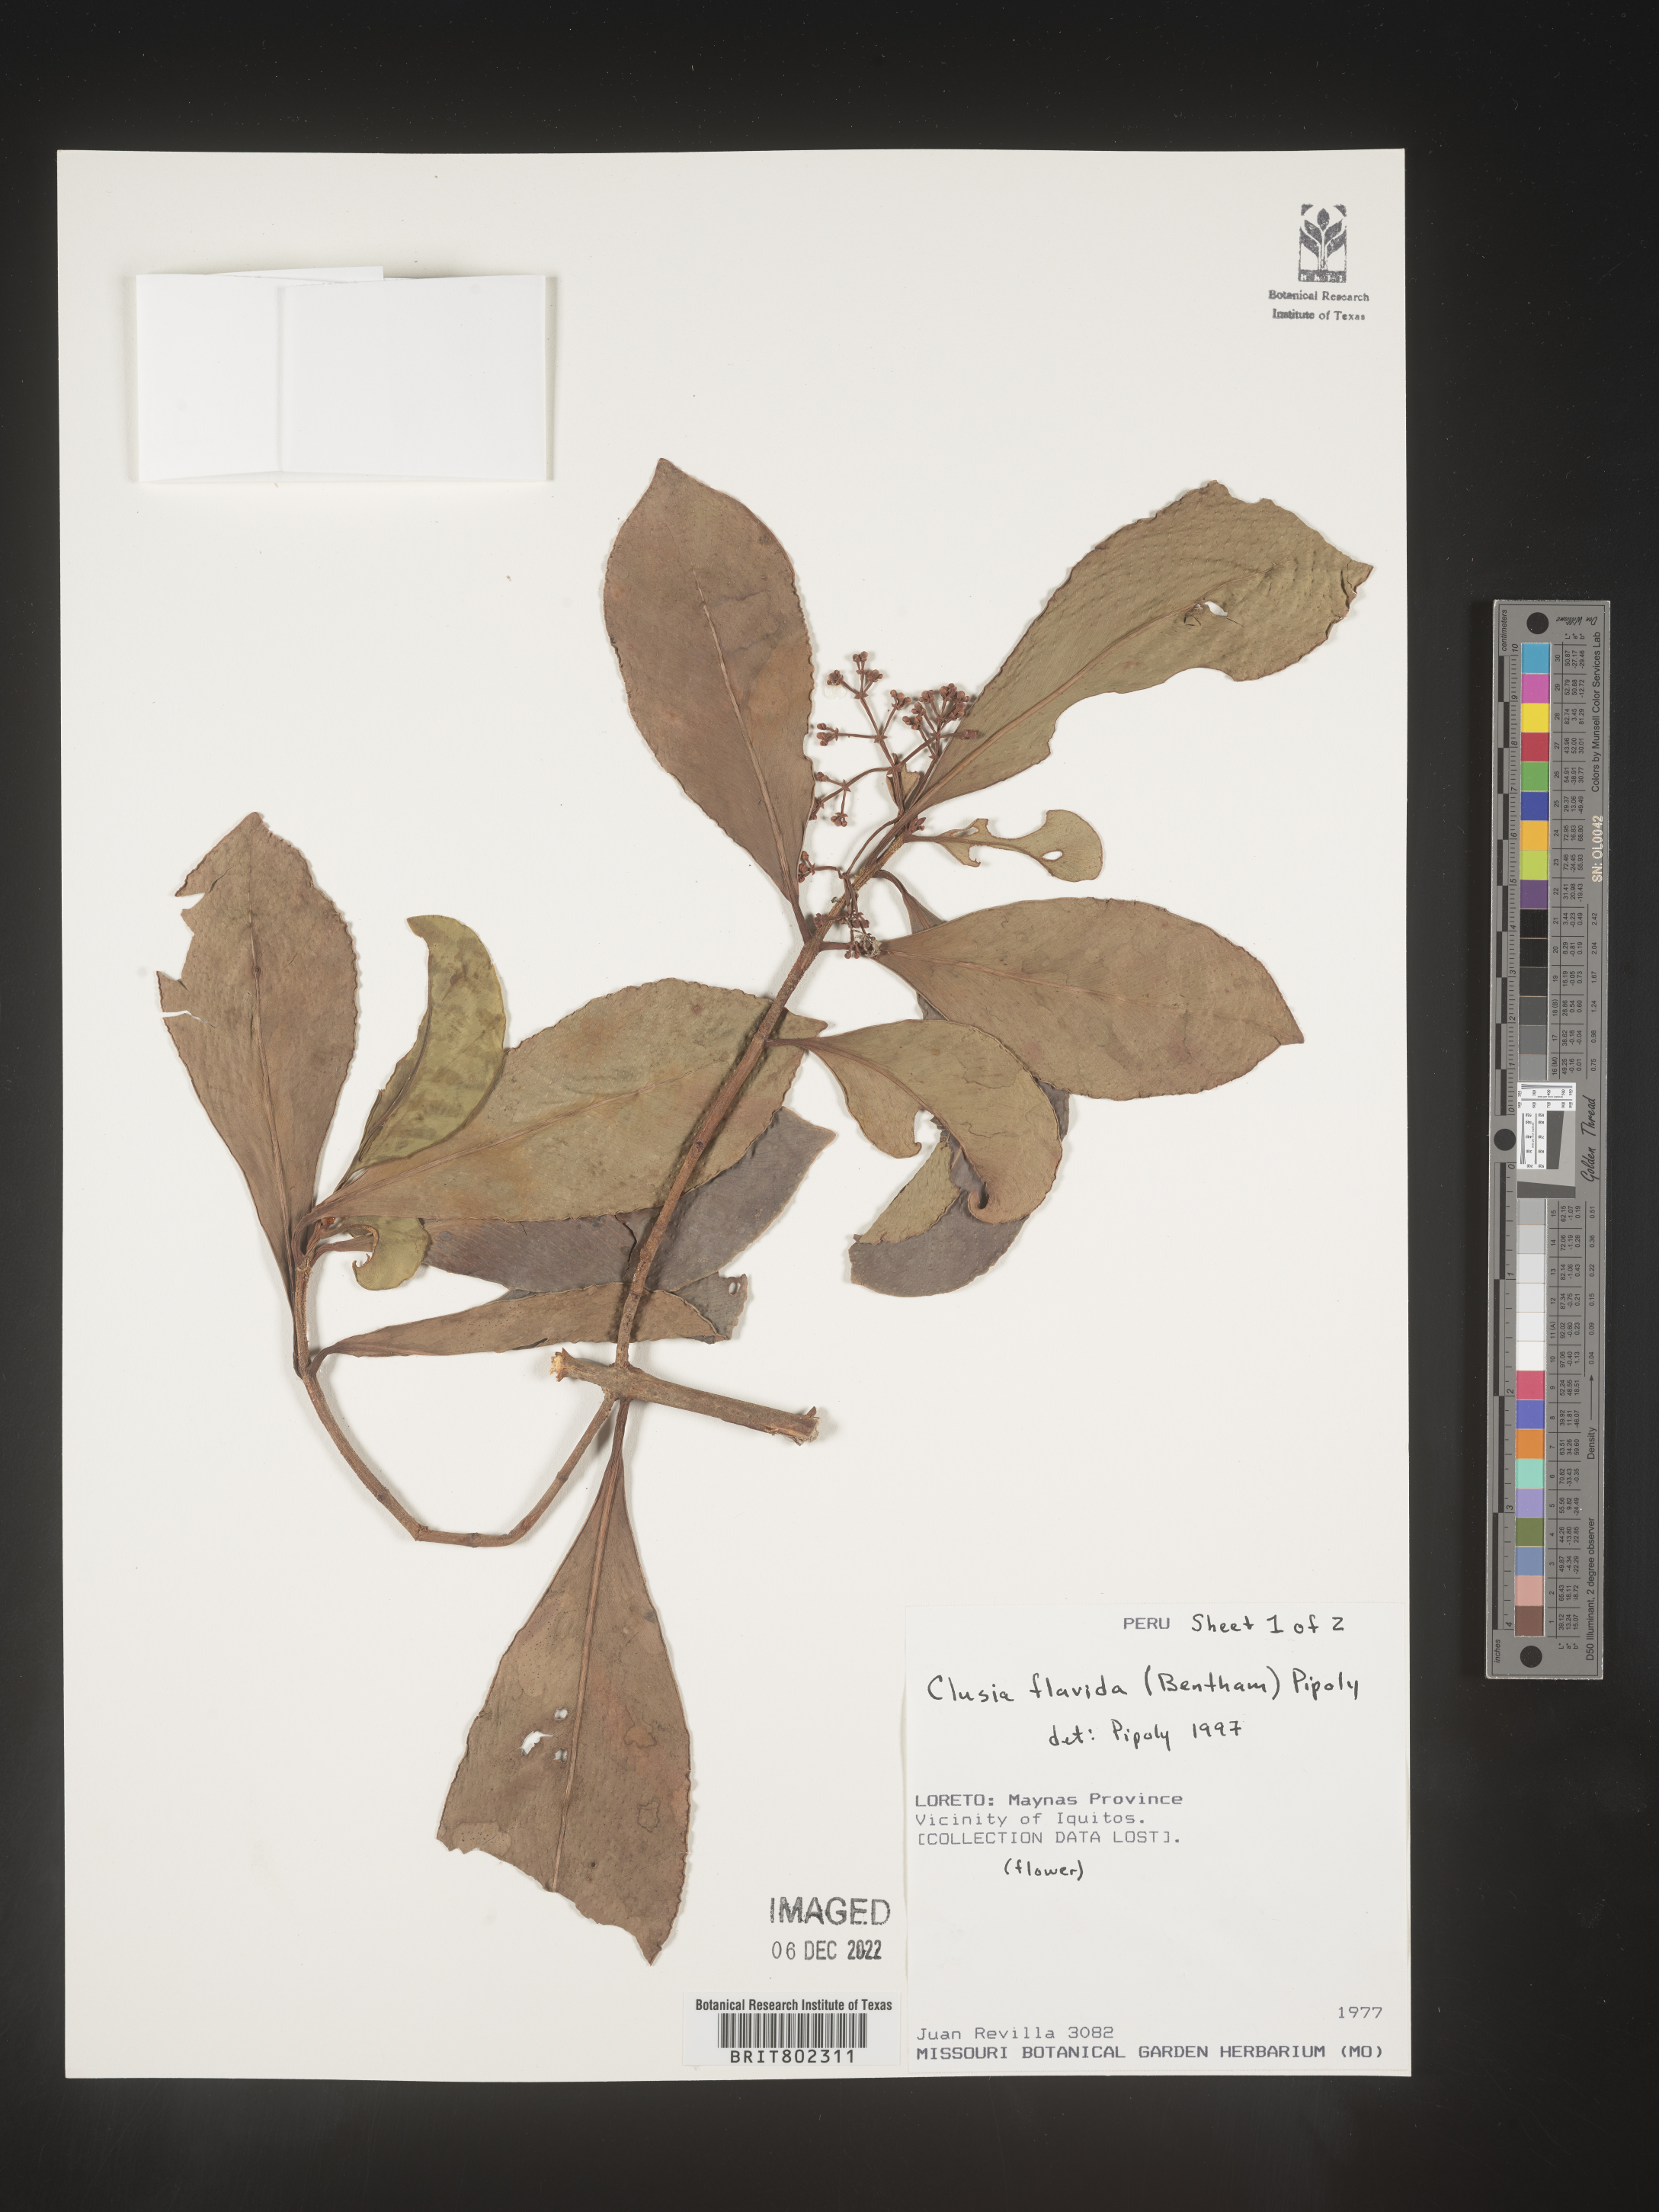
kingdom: Plantae
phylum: Tracheophyta
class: Magnoliopsida
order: Malpighiales
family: Clusiaceae
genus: Clusia
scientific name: Clusia flavida
